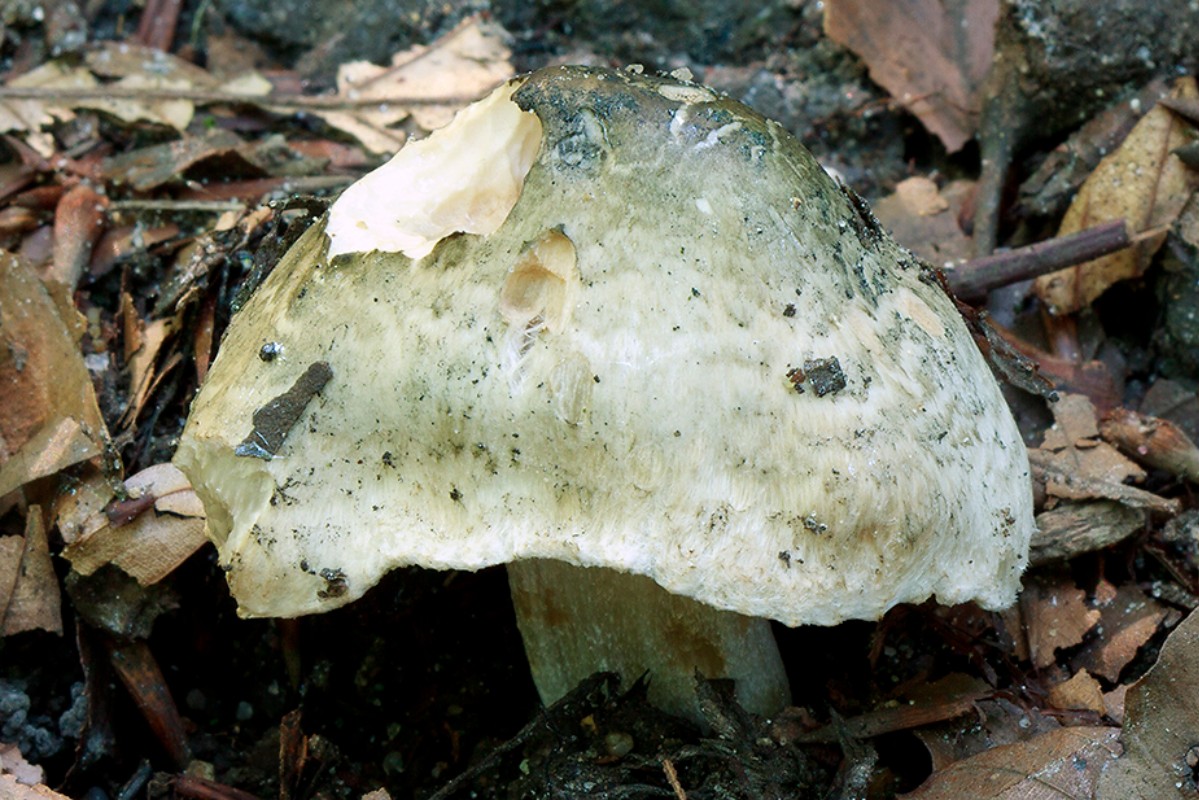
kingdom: Fungi
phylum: Basidiomycota
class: Agaricomycetes
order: Agaricales
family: Inocybaceae
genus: Inocybe
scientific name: Inocybe corydalina
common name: grønpuklet trævlhat
